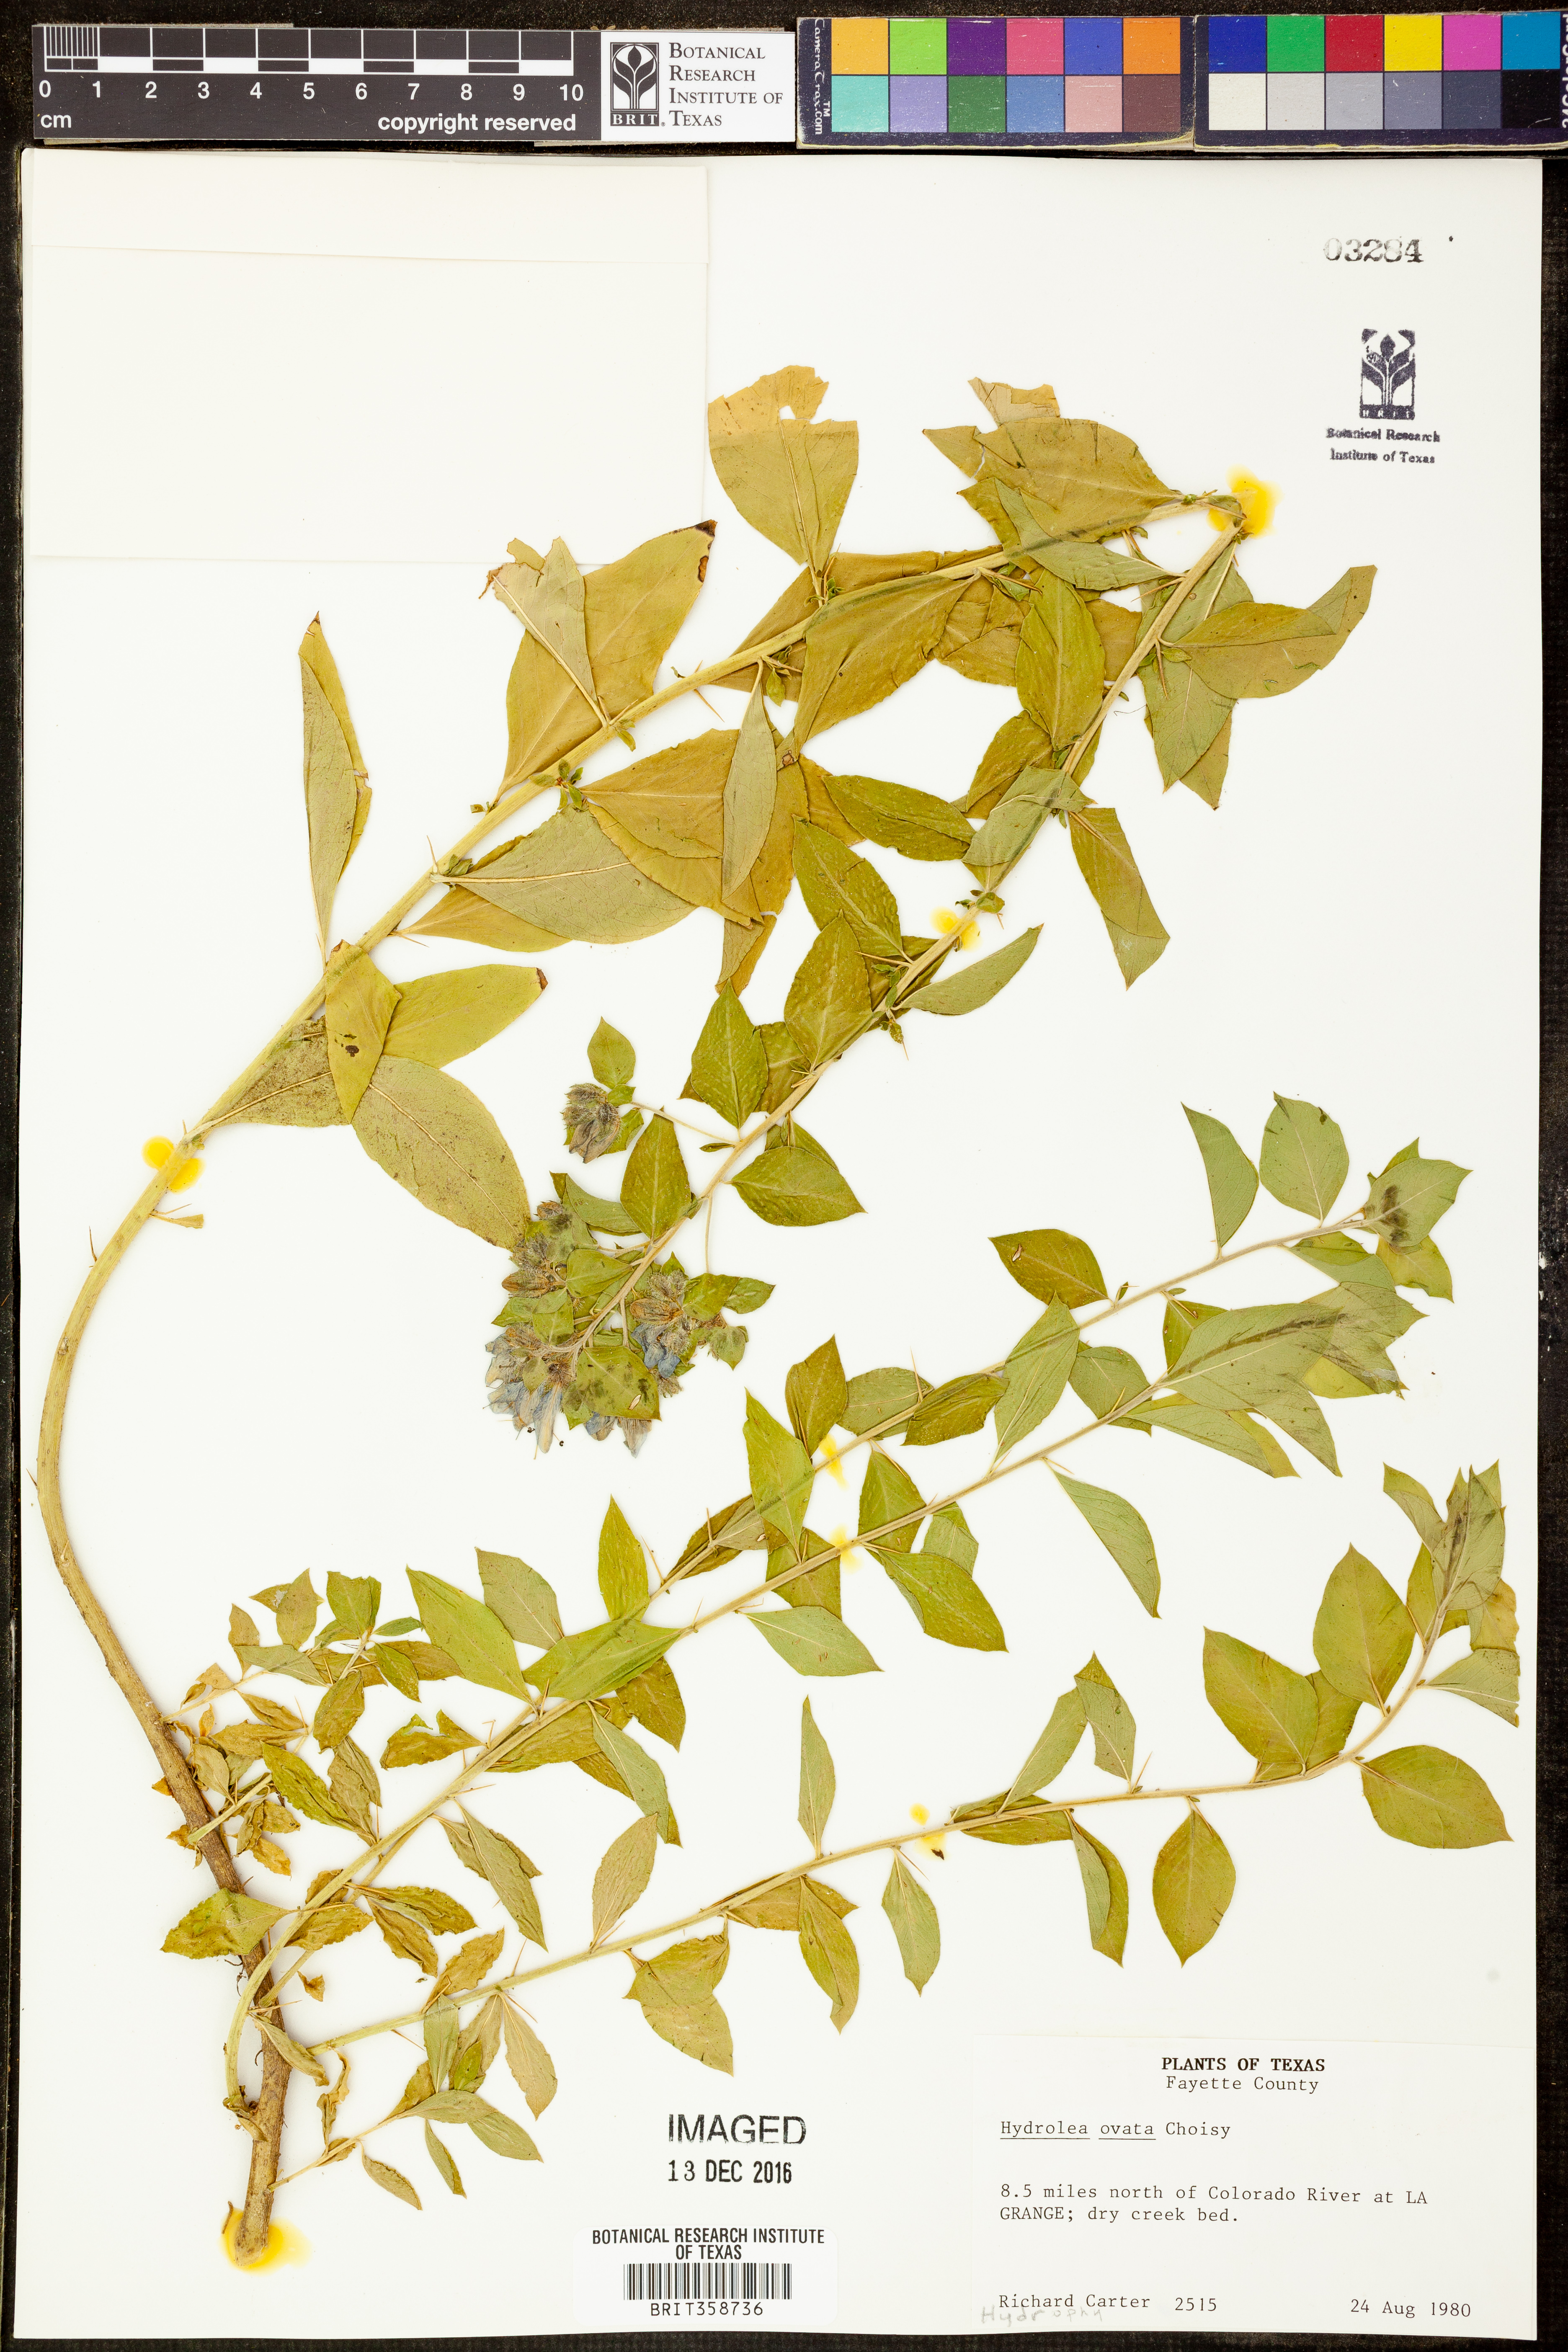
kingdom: Plantae
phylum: Tracheophyta
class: Magnoliopsida
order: Solanales
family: Hydroleaceae
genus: Hydrolea
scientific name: Hydrolea ovata
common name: Ovate false fiddleleaf
